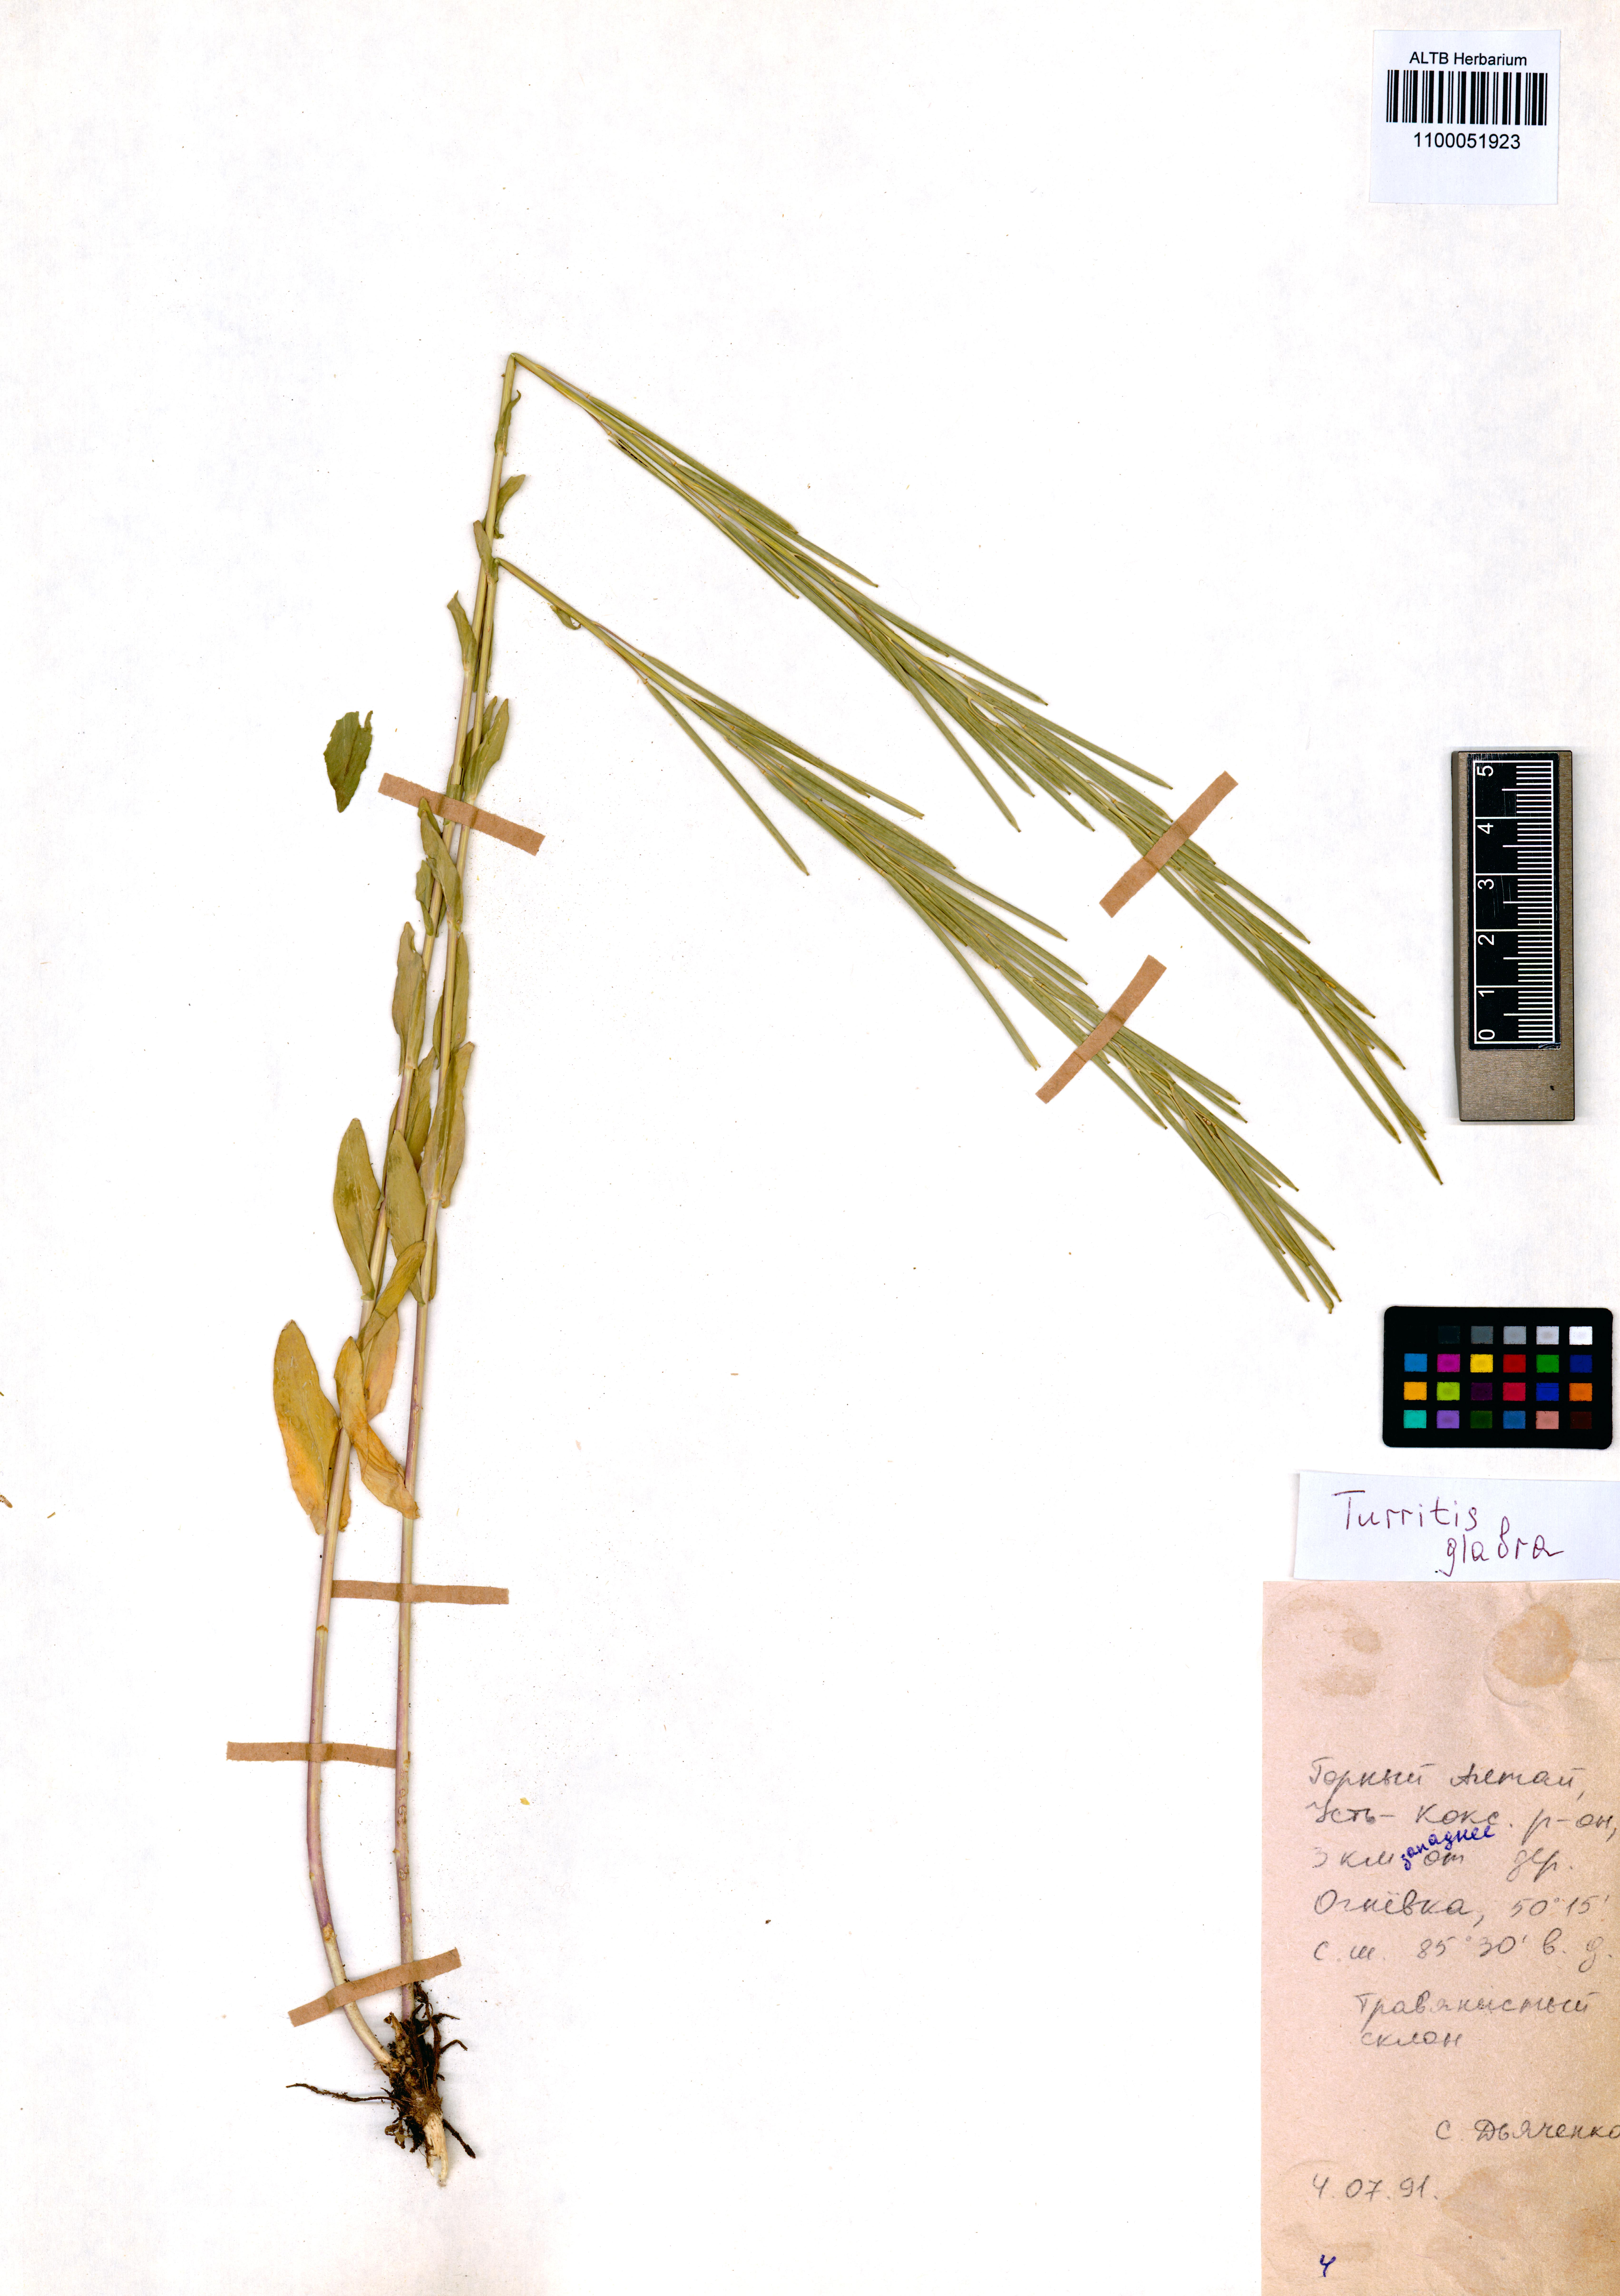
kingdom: Plantae
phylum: Tracheophyta
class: Magnoliopsida
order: Brassicales
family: Brassicaceae
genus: Turritis
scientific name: Turritis glabra
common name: Tower rockcress
